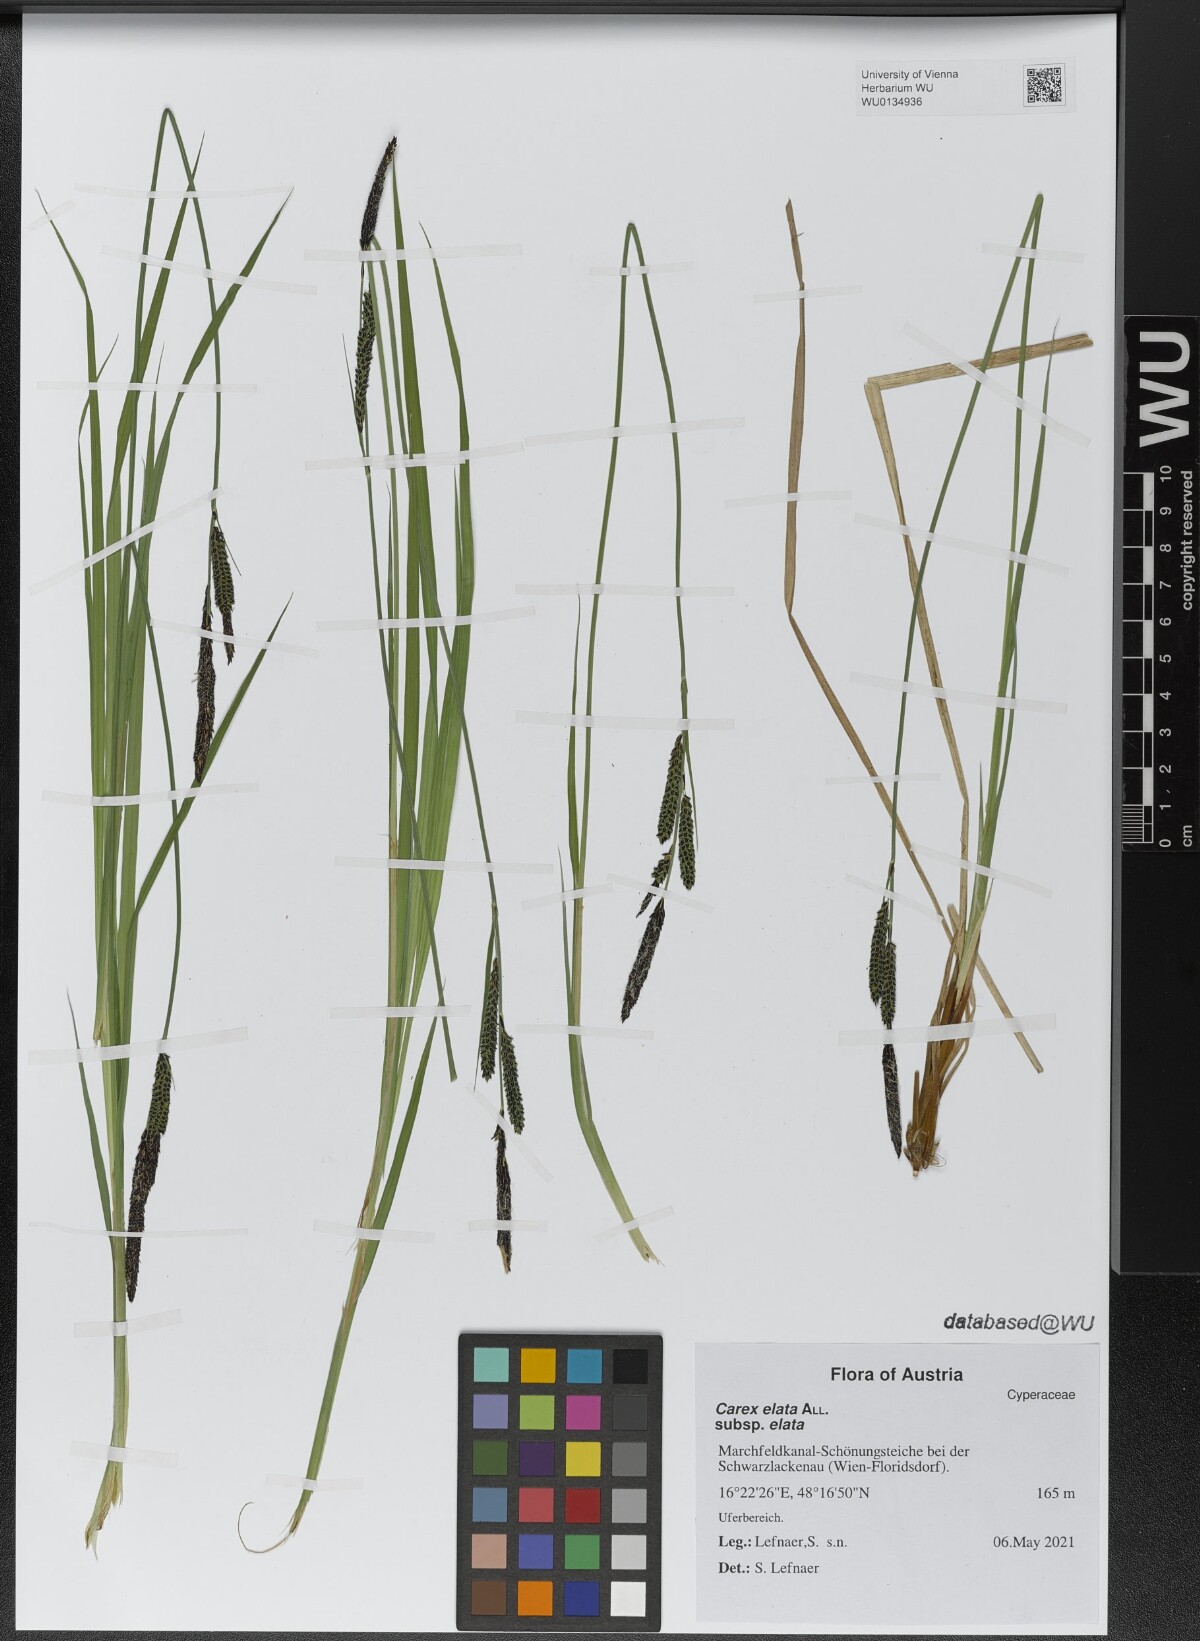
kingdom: Plantae
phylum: Tracheophyta
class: Liliopsida
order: Poales
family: Cyperaceae
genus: Carex
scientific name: Carex elata
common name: Tufted sedge
